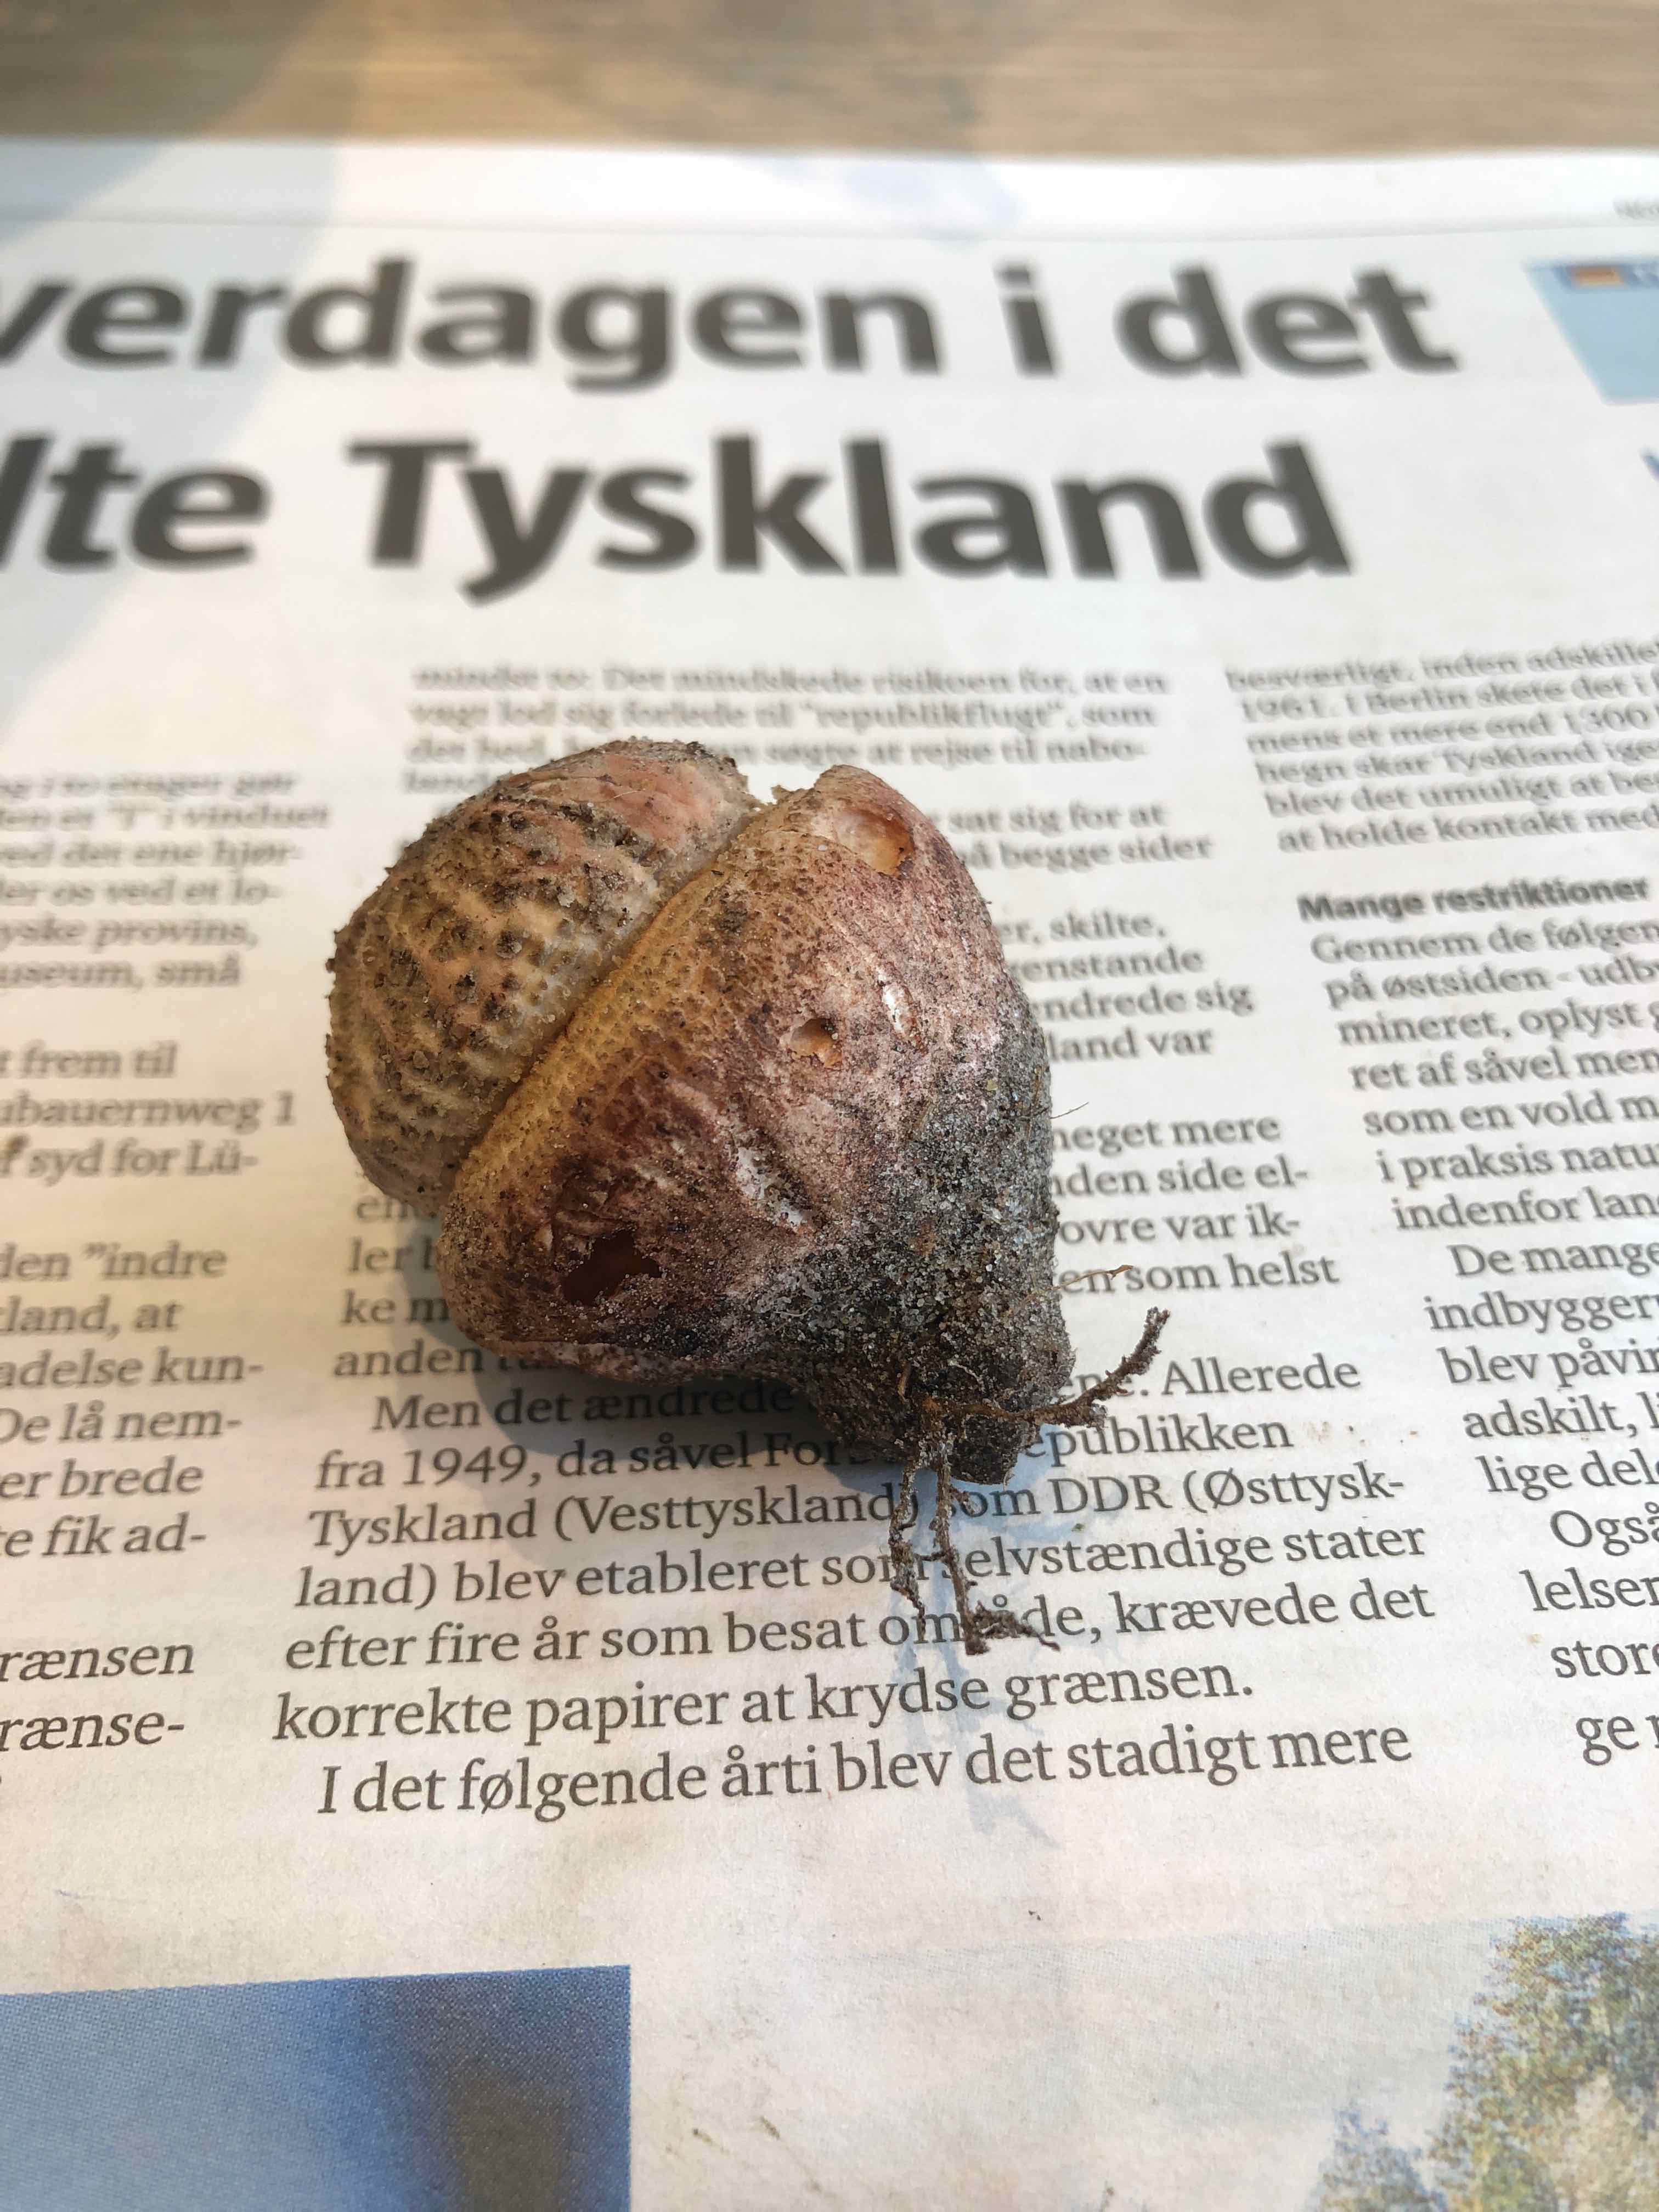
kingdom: Fungi
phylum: Basidiomycota
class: Agaricomycetes
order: Agaricales
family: Amanitaceae
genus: Amanita
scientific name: Amanita rubescens
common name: rødmende fluesvamp
